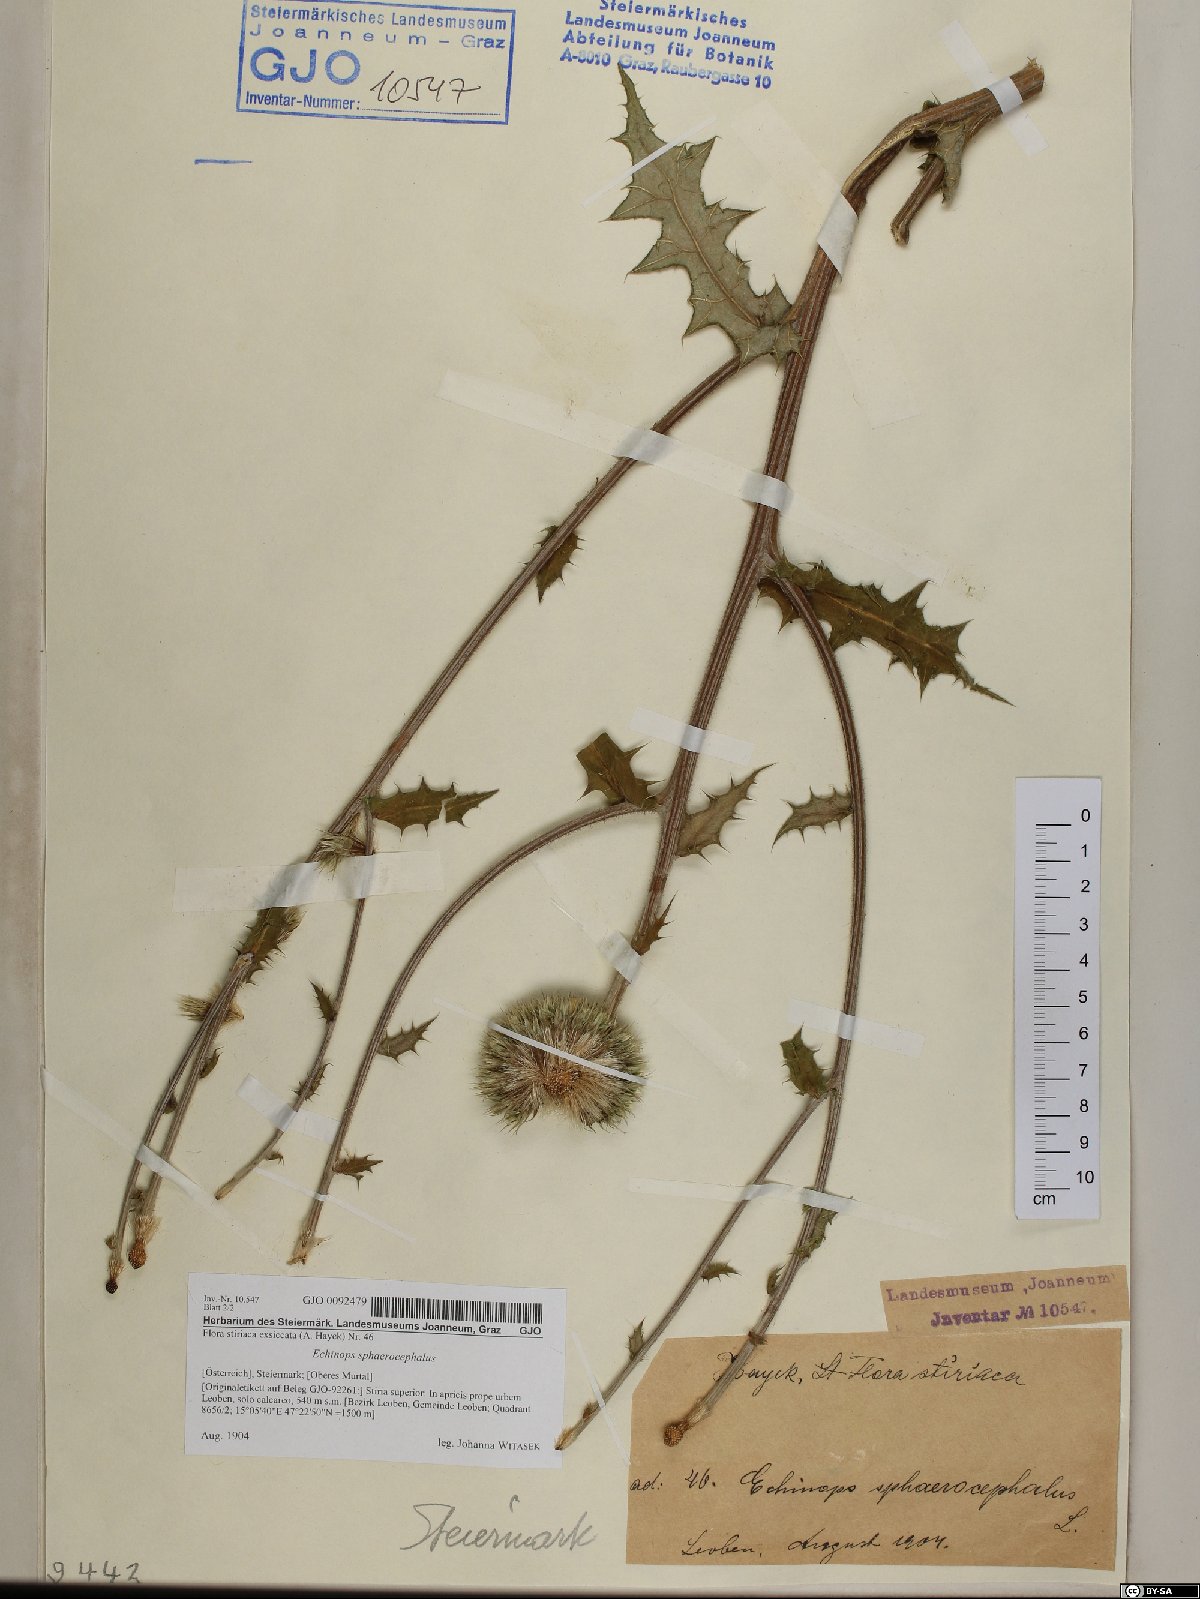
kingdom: Plantae
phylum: Tracheophyta
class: Magnoliopsida
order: Asterales
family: Asteraceae
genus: Echinops
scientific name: Echinops sphaerocephalus
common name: Glandular globe-thistle
